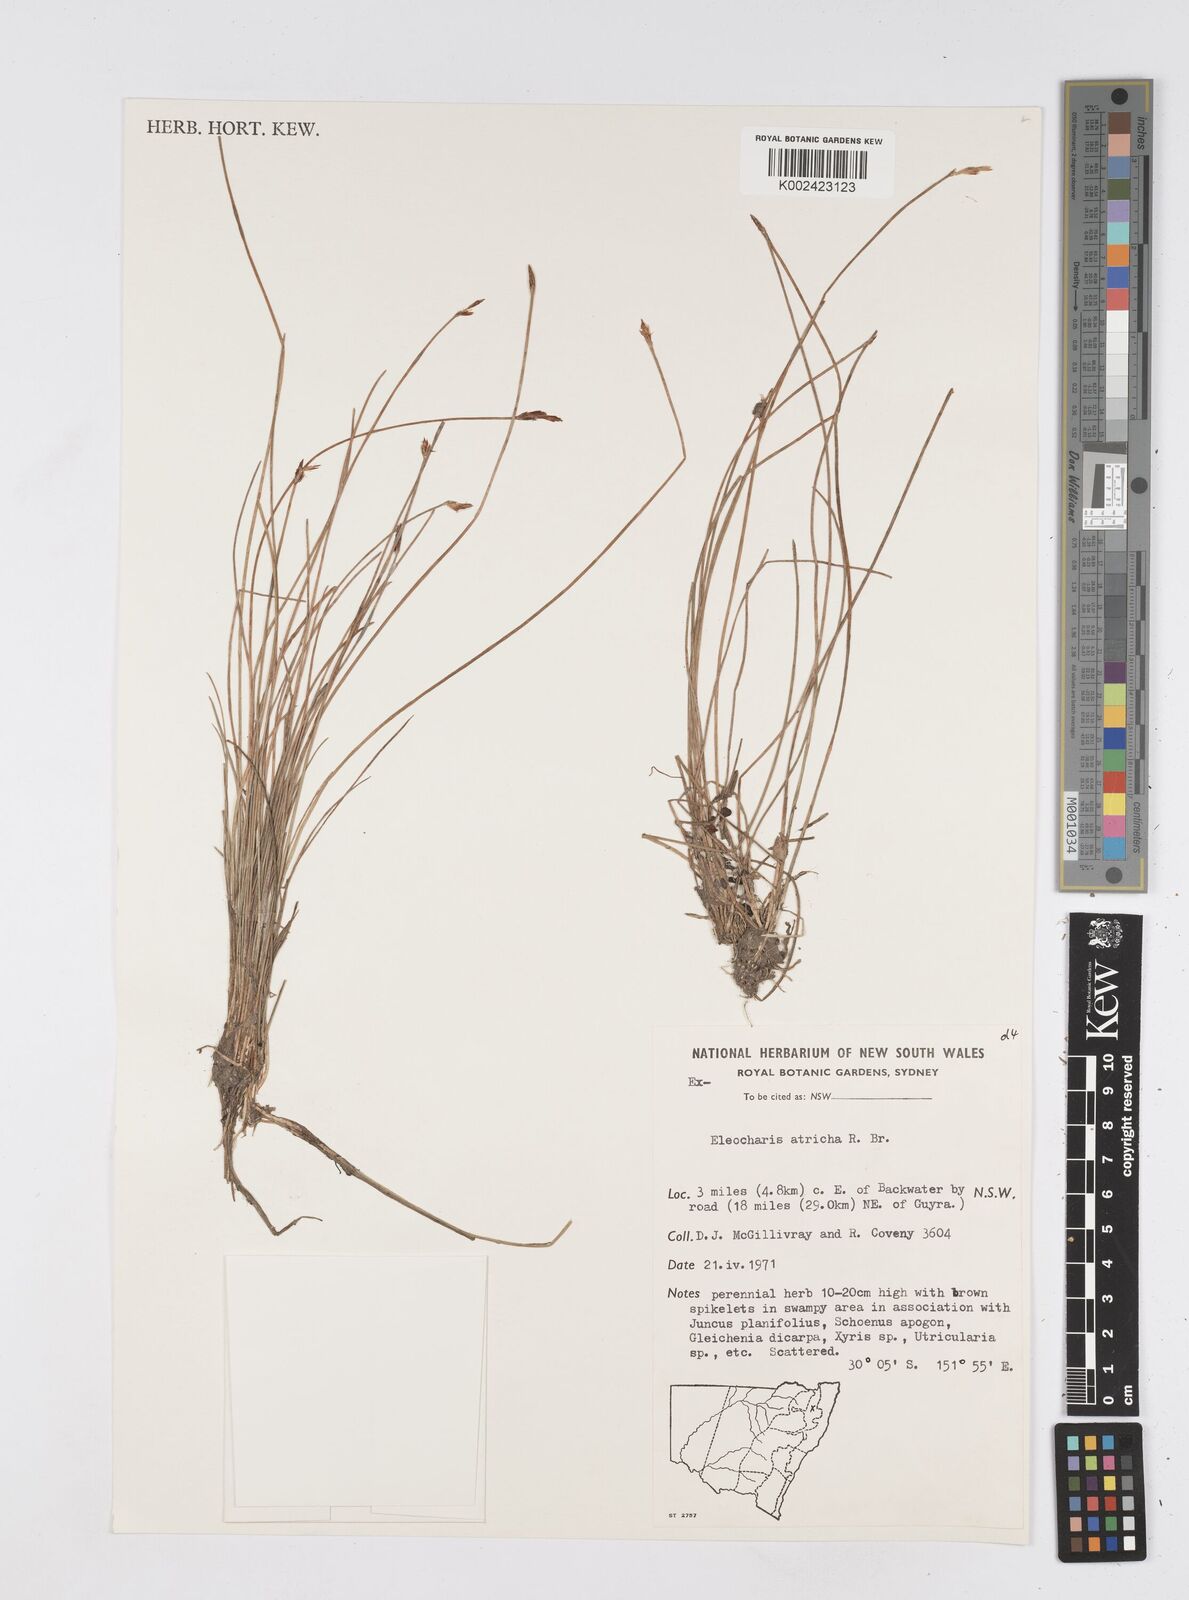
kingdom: Plantae
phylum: Tracheophyta
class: Liliopsida
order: Poales
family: Cyperaceae
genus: Eleocharis
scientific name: Eleocharis acicularis
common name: Needle spike-rush
